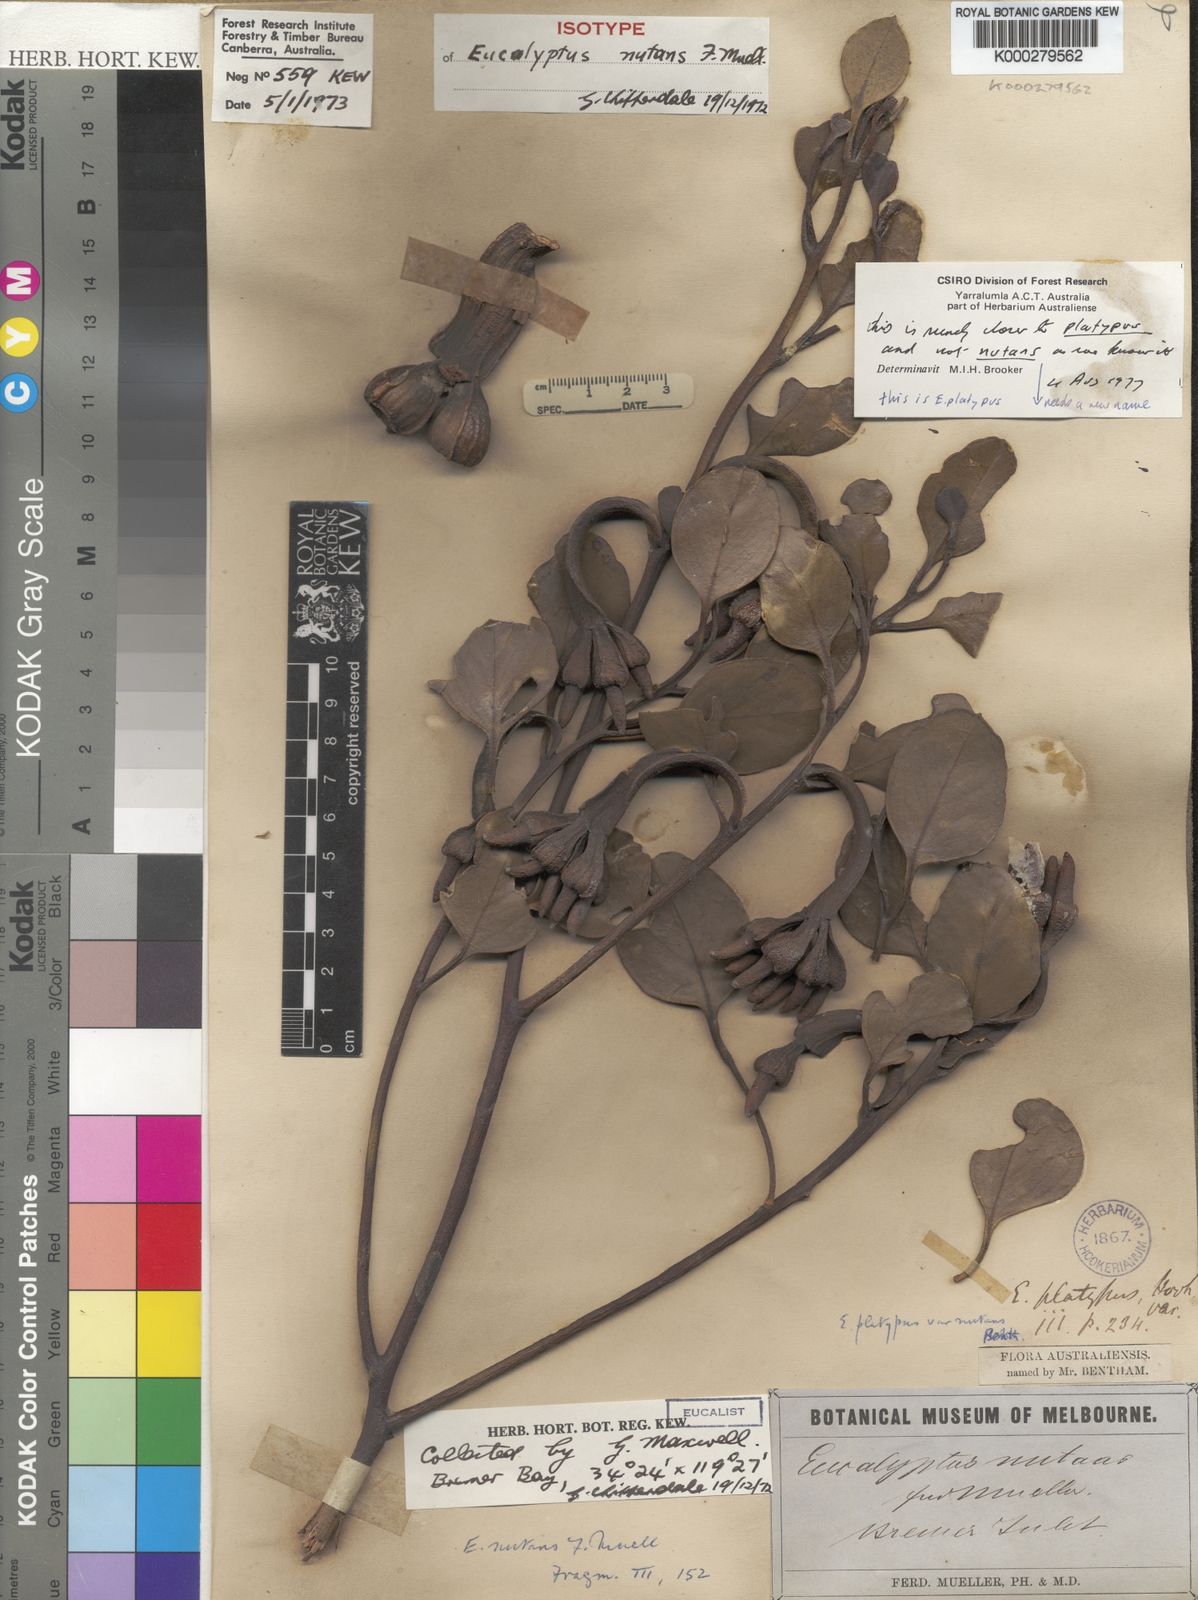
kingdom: Plantae
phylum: Tracheophyta
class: Magnoliopsida
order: Myrtales
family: Myrtaceae
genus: Eucalyptus
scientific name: Eucalyptus nutans
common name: Red-flowered moort
